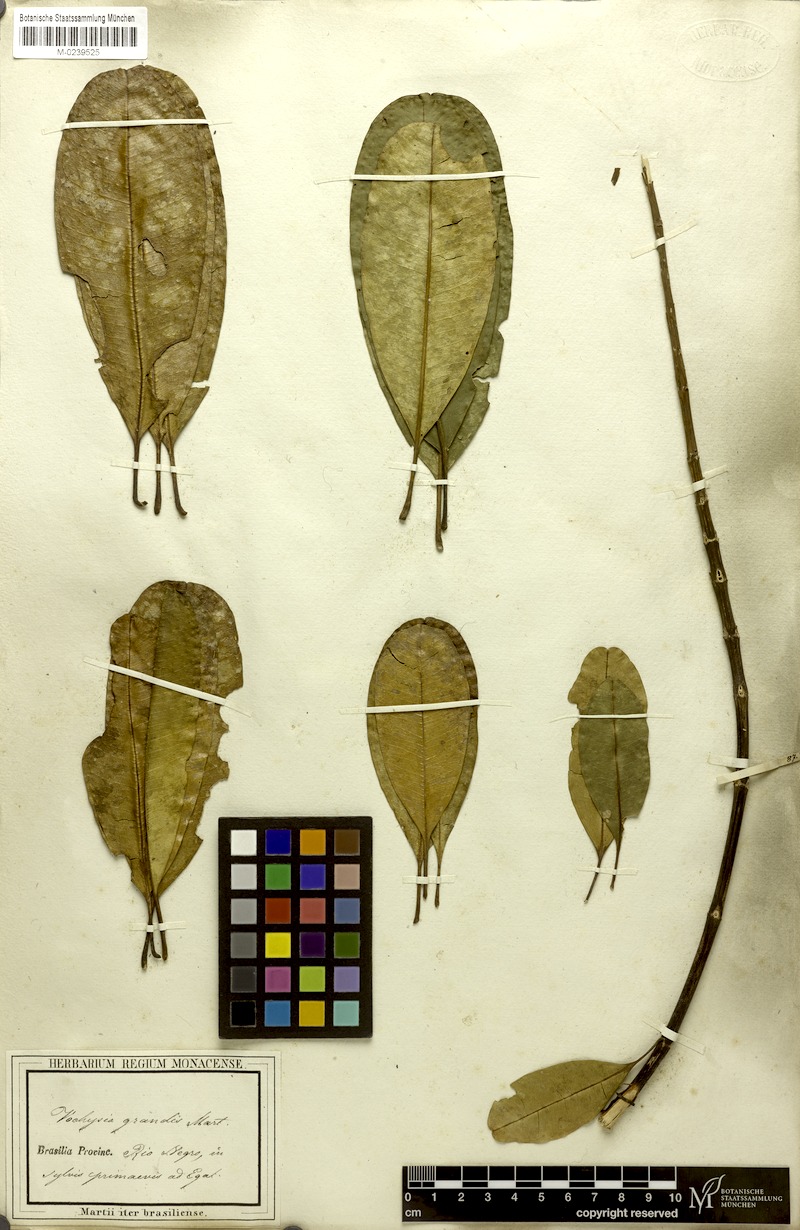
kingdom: Plantae
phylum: Tracheophyta
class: Magnoliopsida
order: Myrtales
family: Vochysiaceae
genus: Vochysia
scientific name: Vochysia grandis
